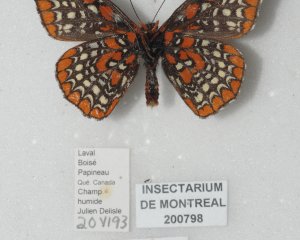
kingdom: Animalia
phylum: Arthropoda
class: Insecta
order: Lepidoptera
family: Nymphalidae
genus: Euphydryas
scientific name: Euphydryas phaeton
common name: Baltimore Checkerspot
